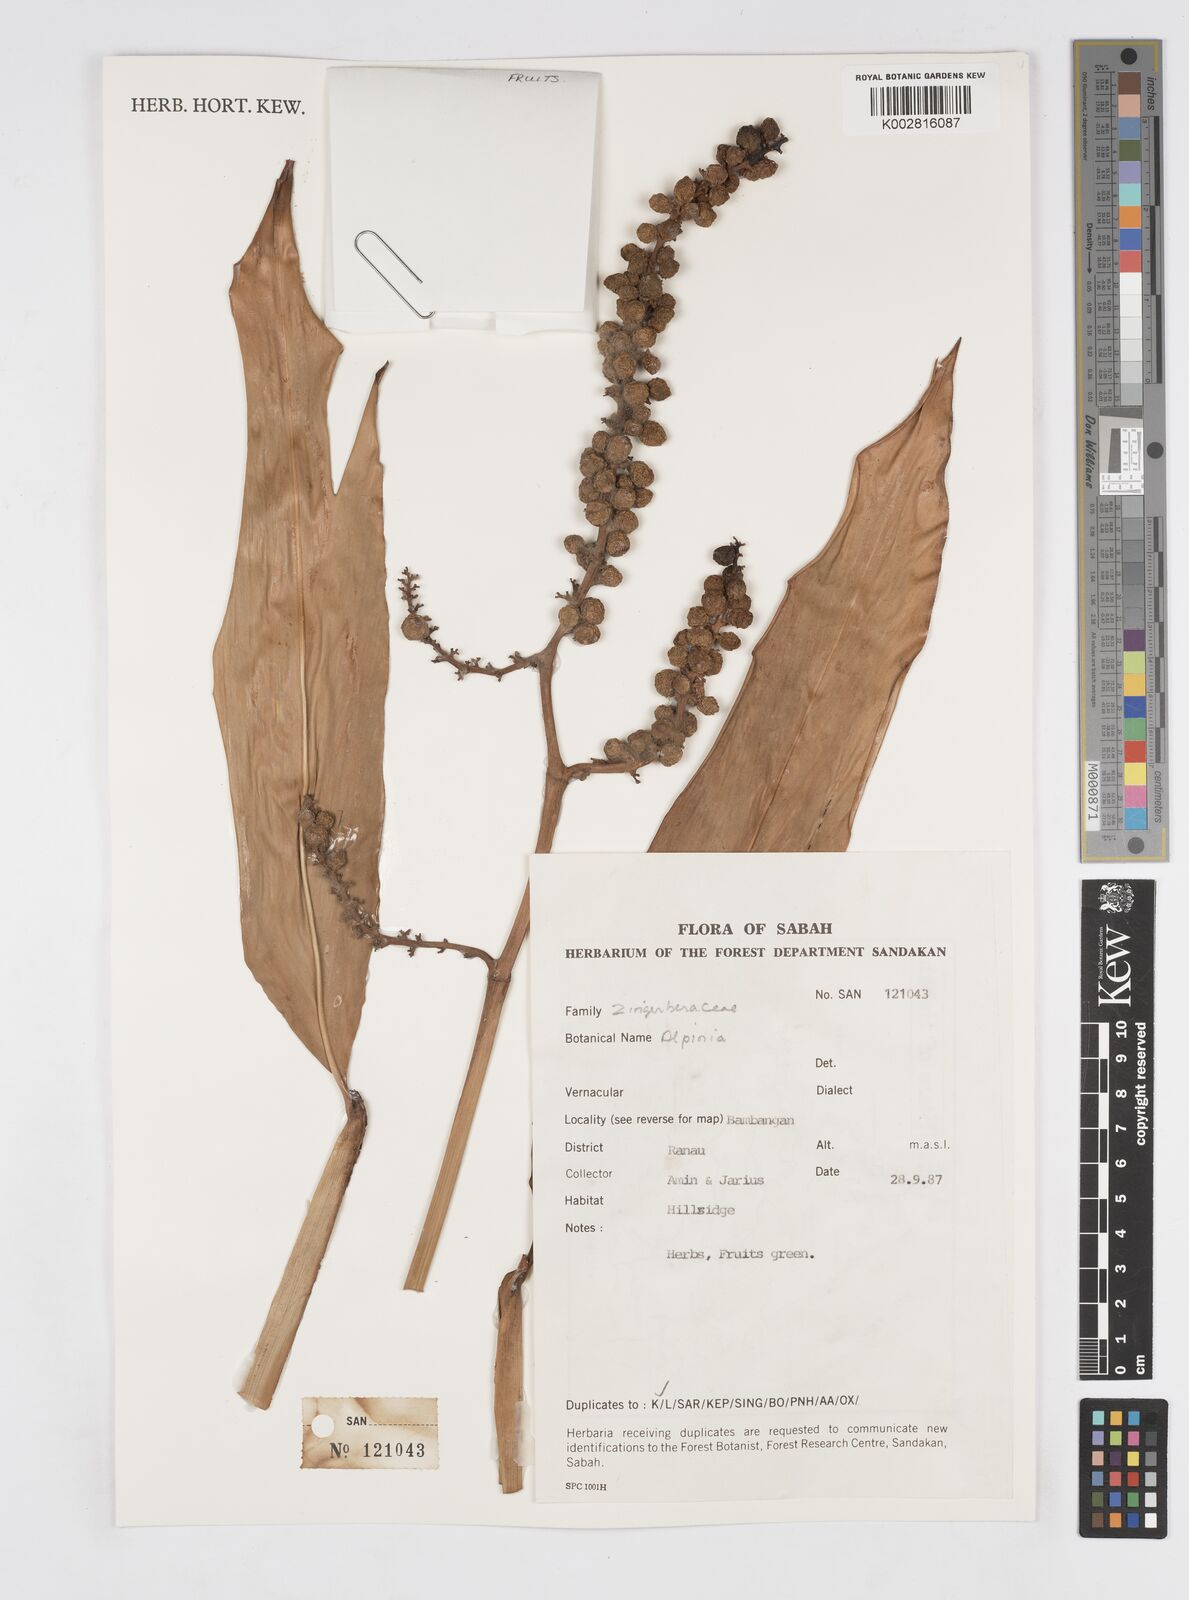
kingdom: Plantae
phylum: Tracheophyta
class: Liliopsida
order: Zingiberales
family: Zingiberaceae
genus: Alpinia
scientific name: Alpinia
